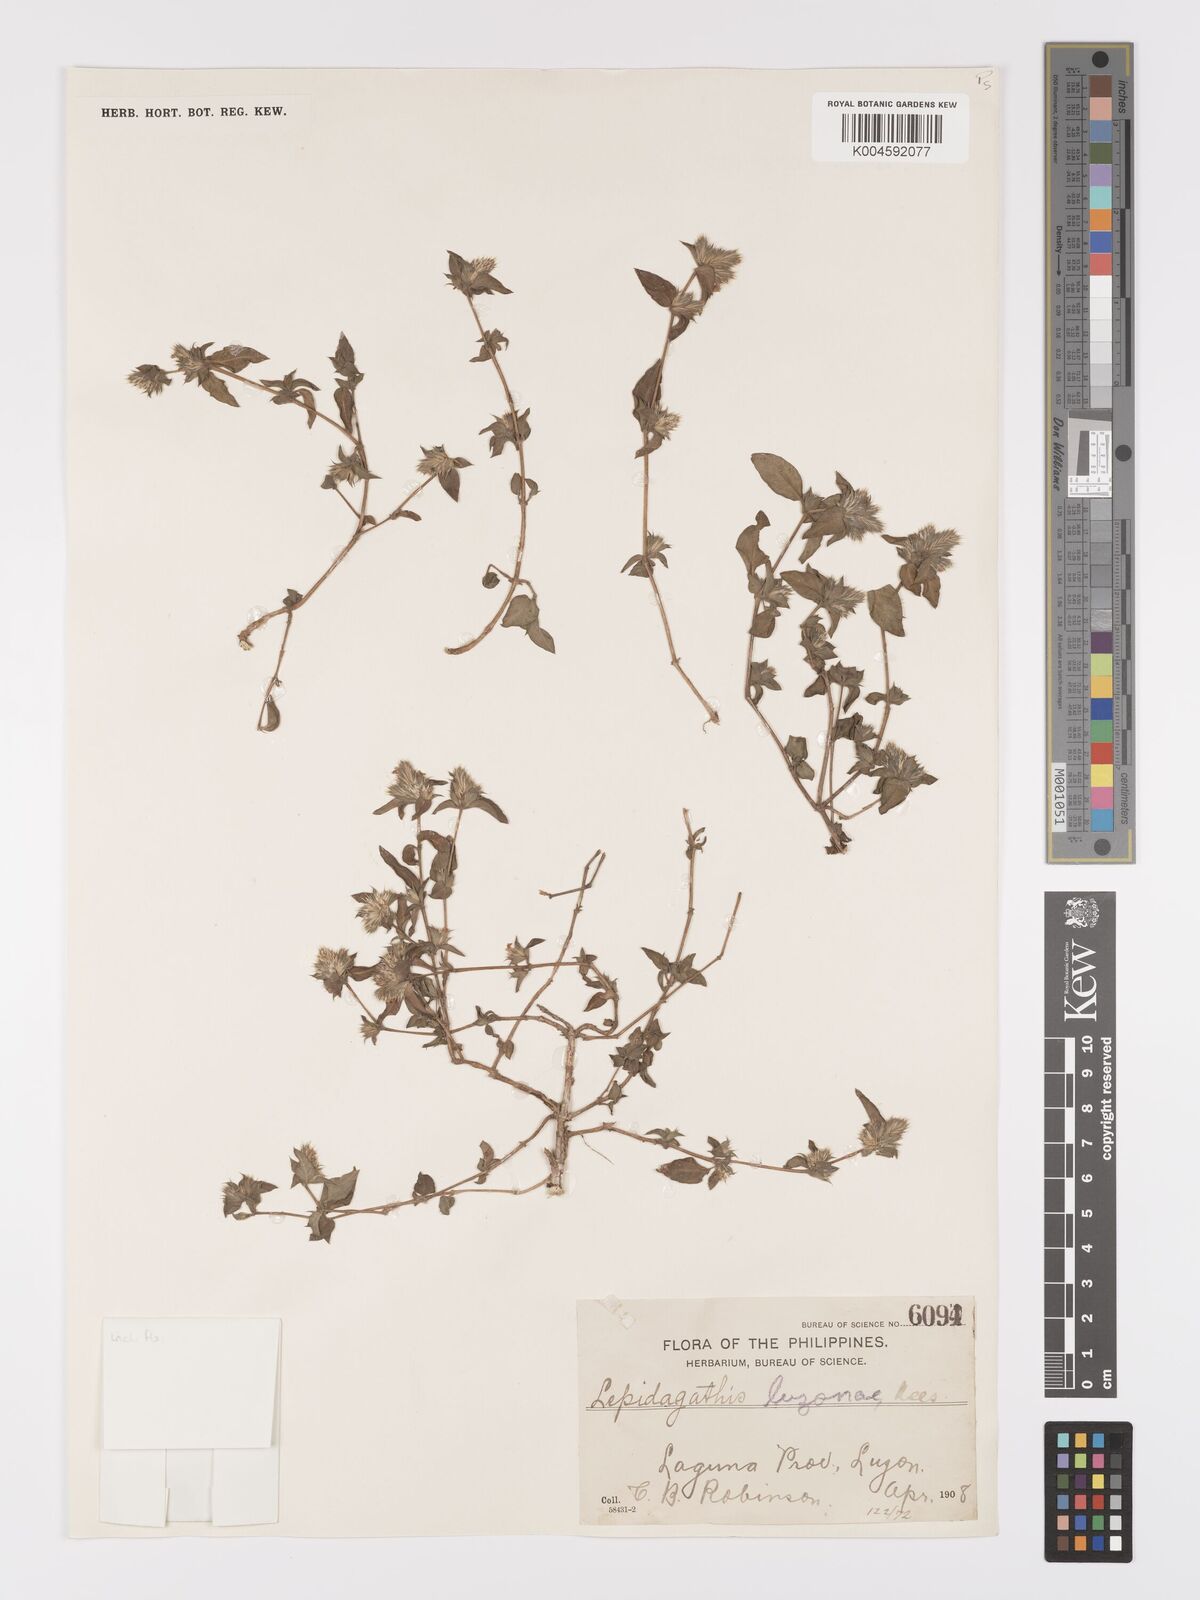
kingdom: Plantae
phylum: Tracheophyta
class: Magnoliopsida
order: Lamiales
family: Acanthaceae
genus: Lepidagathis
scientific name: Lepidagathis luzona
